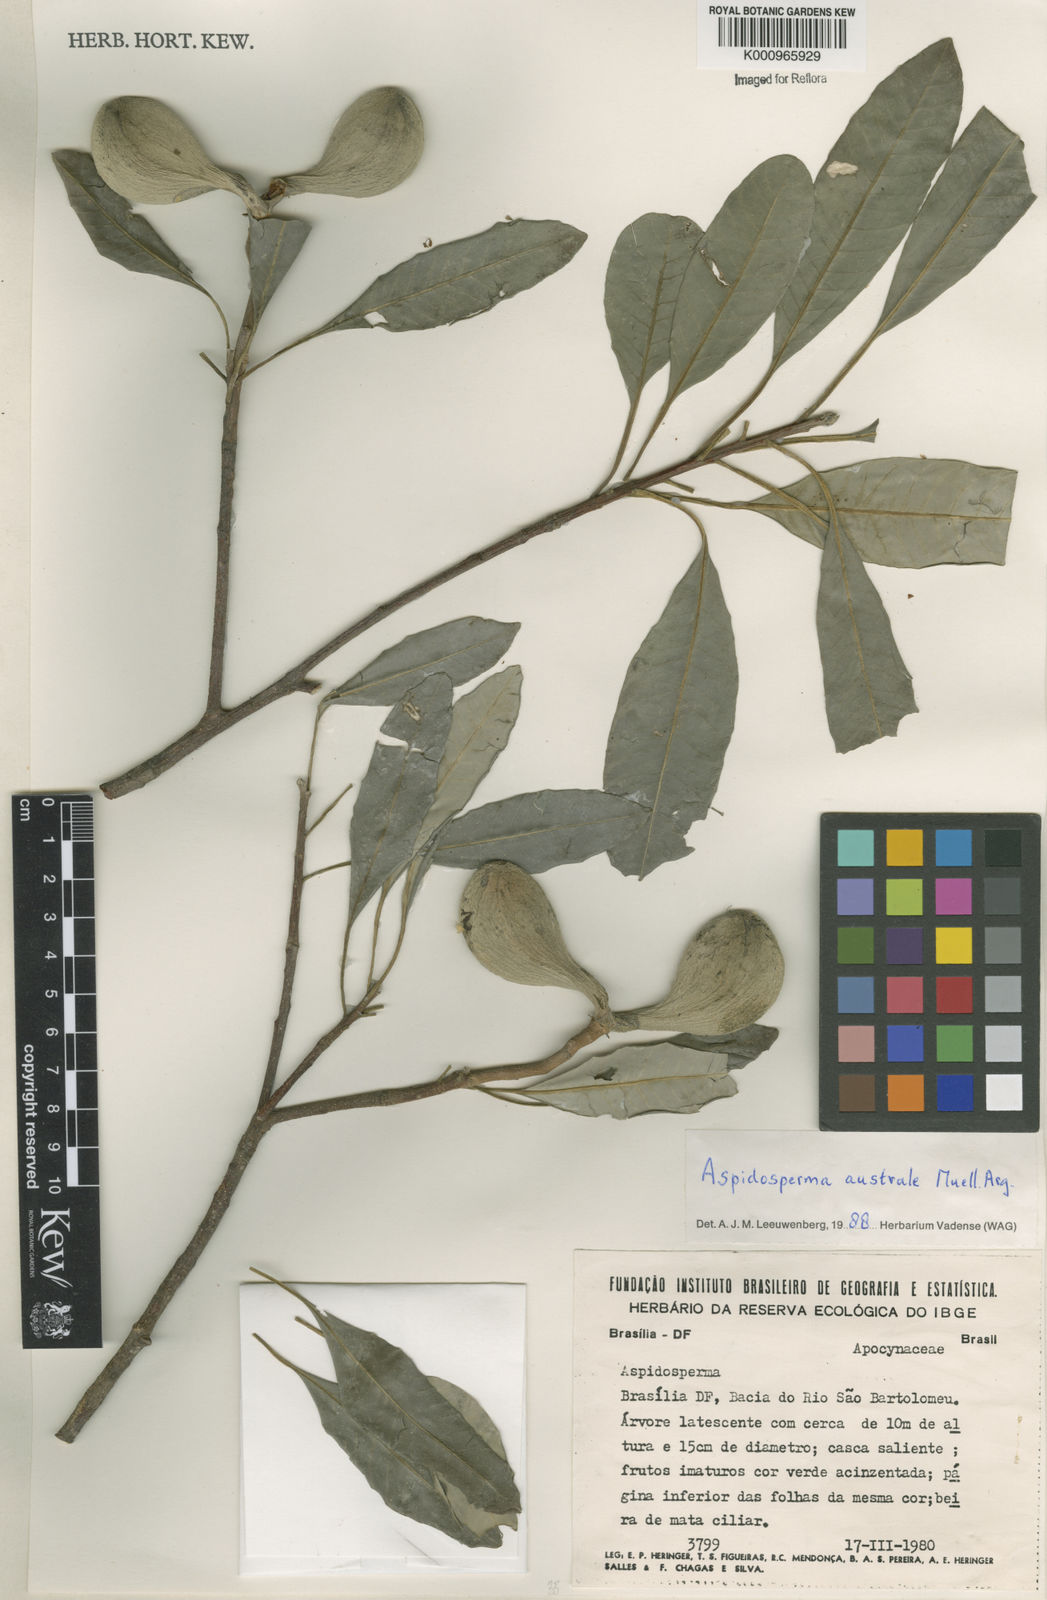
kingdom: Plantae
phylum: Tracheophyta
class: Magnoliopsida
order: Gentianales
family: Apocynaceae
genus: Aspidosperma
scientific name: Aspidosperma
